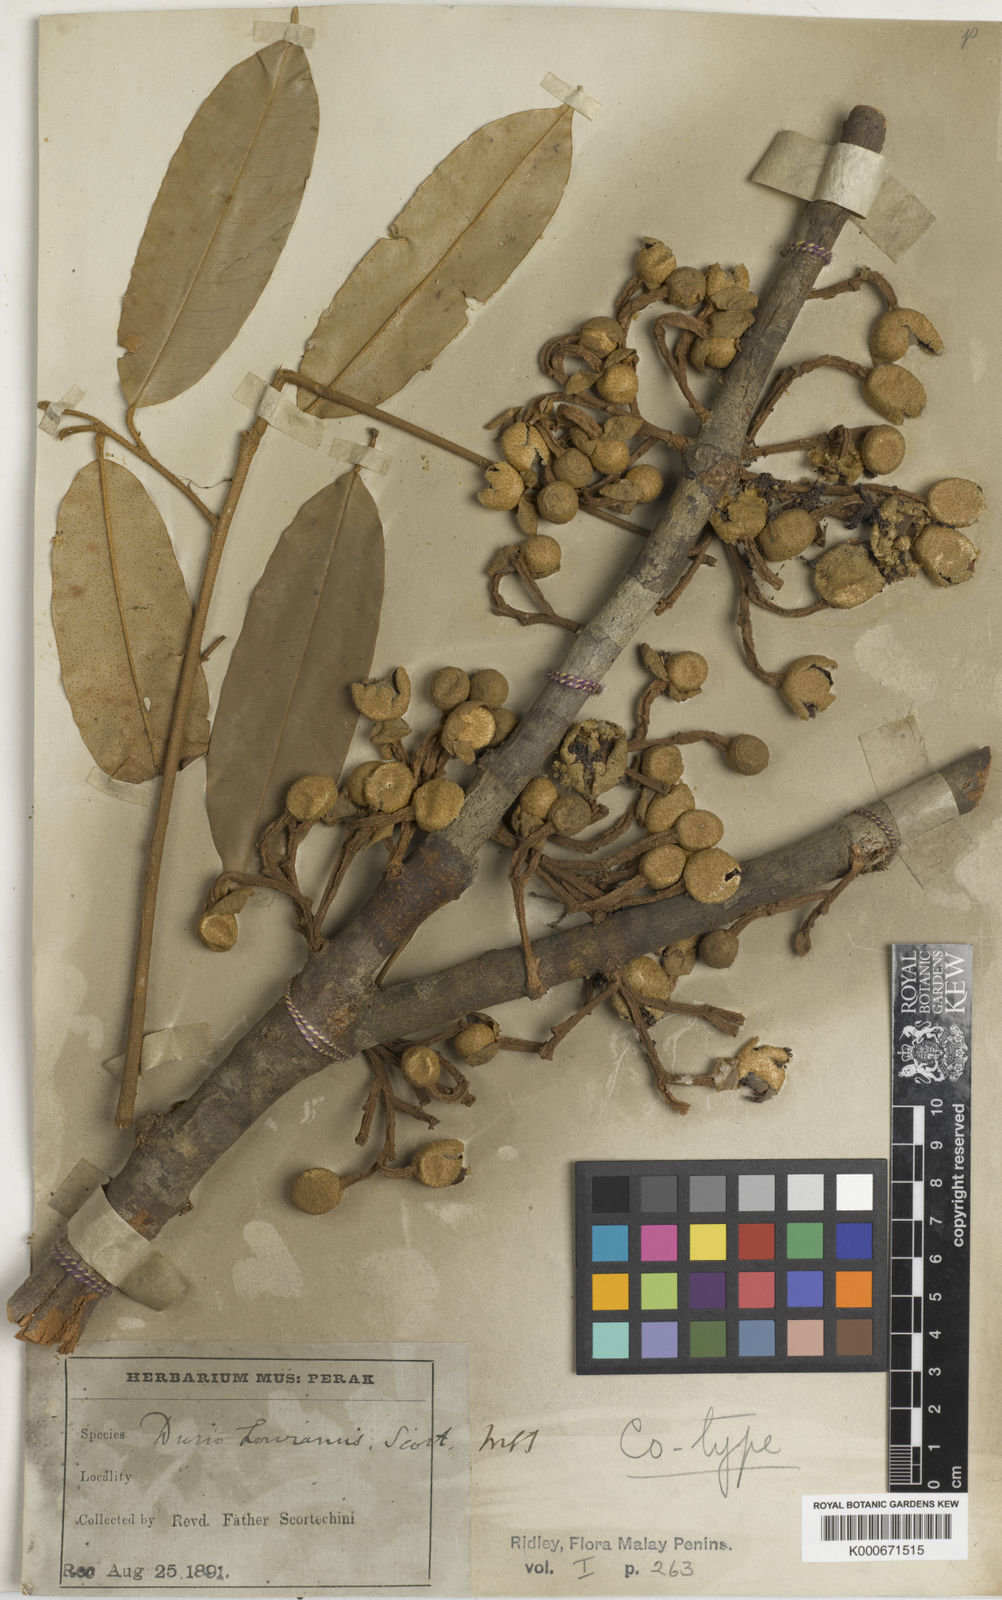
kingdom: Plantae
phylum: Tracheophyta
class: Magnoliopsida
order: Malvales
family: Malvaceae
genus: Durio
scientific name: Durio lowianus
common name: Durian
